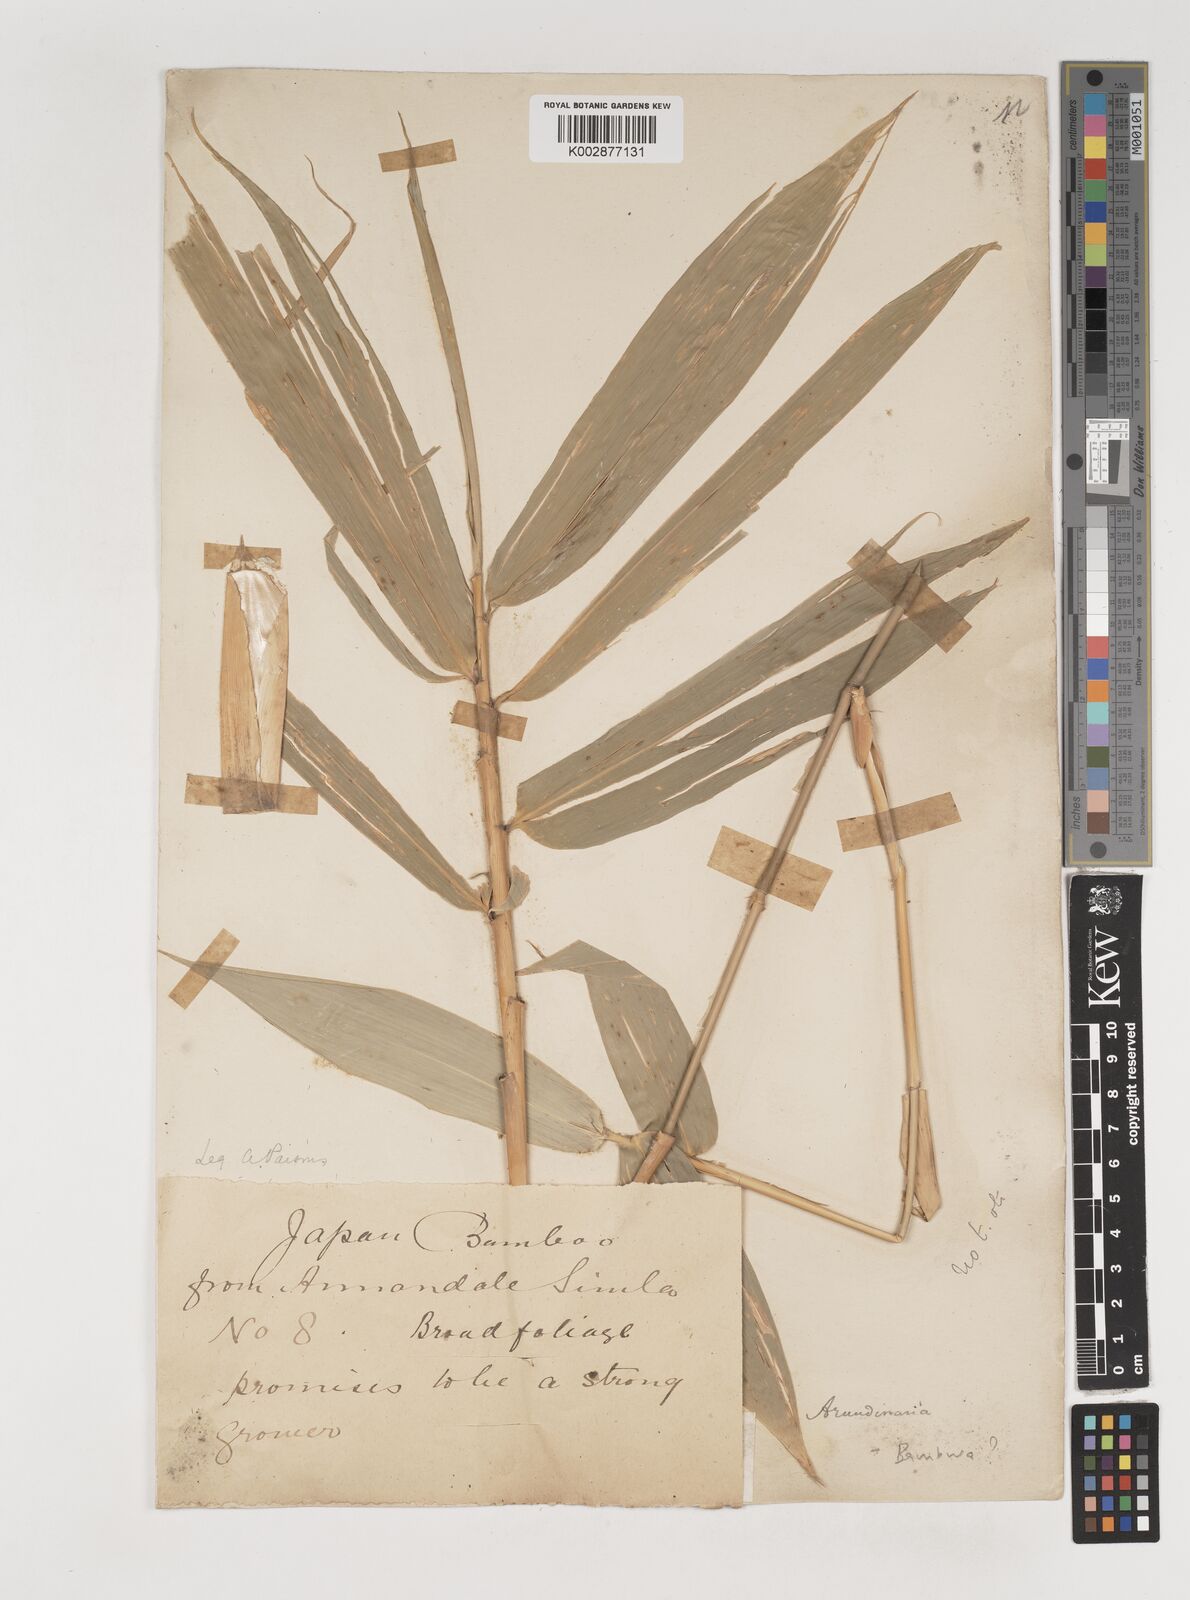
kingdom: Plantae
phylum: Tracheophyta
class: Liliopsida
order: Poales
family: Poaceae
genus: Bambusa
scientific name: Bambusa
